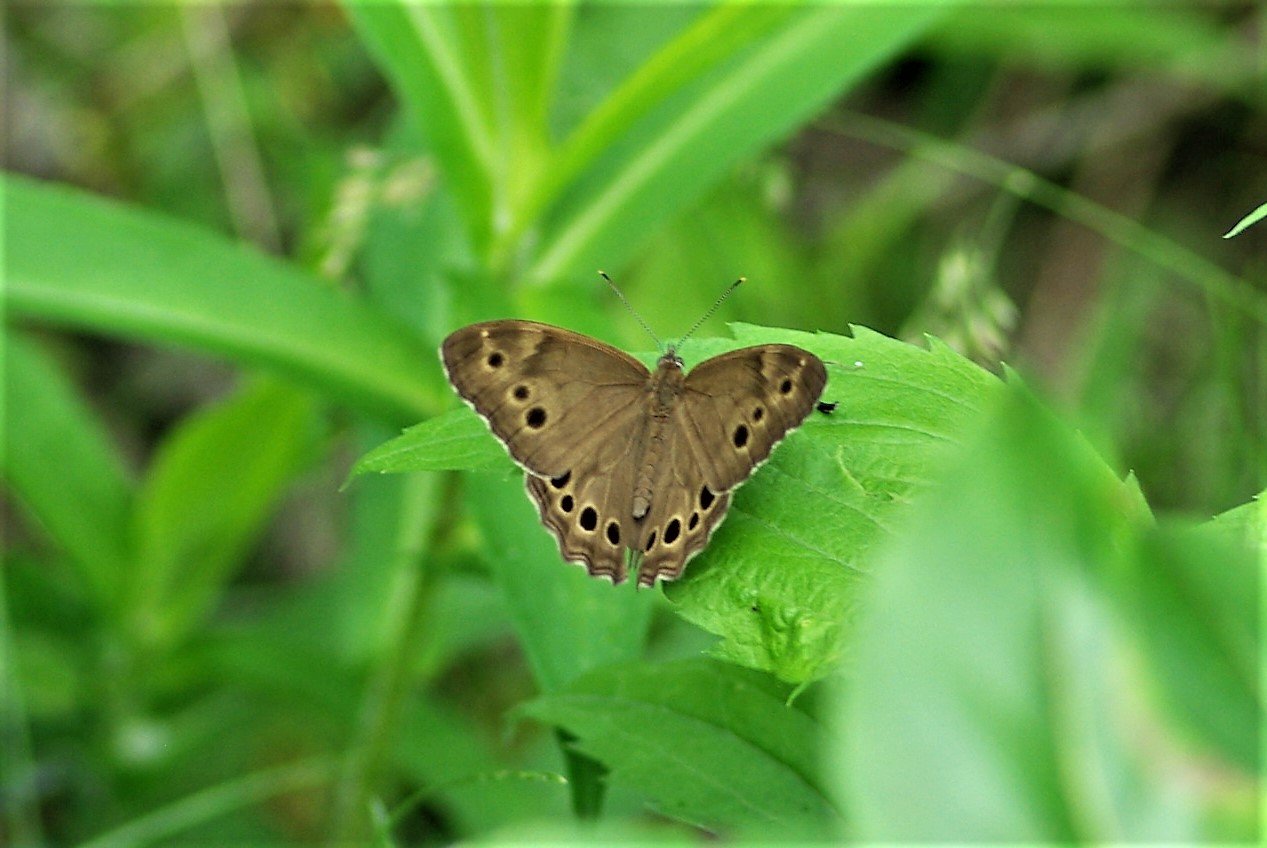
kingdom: Animalia
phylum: Arthropoda
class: Insecta
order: Lepidoptera
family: Nymphalidae
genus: Lethe
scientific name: Lethe anthedon
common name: Northern Pearly-Eye
